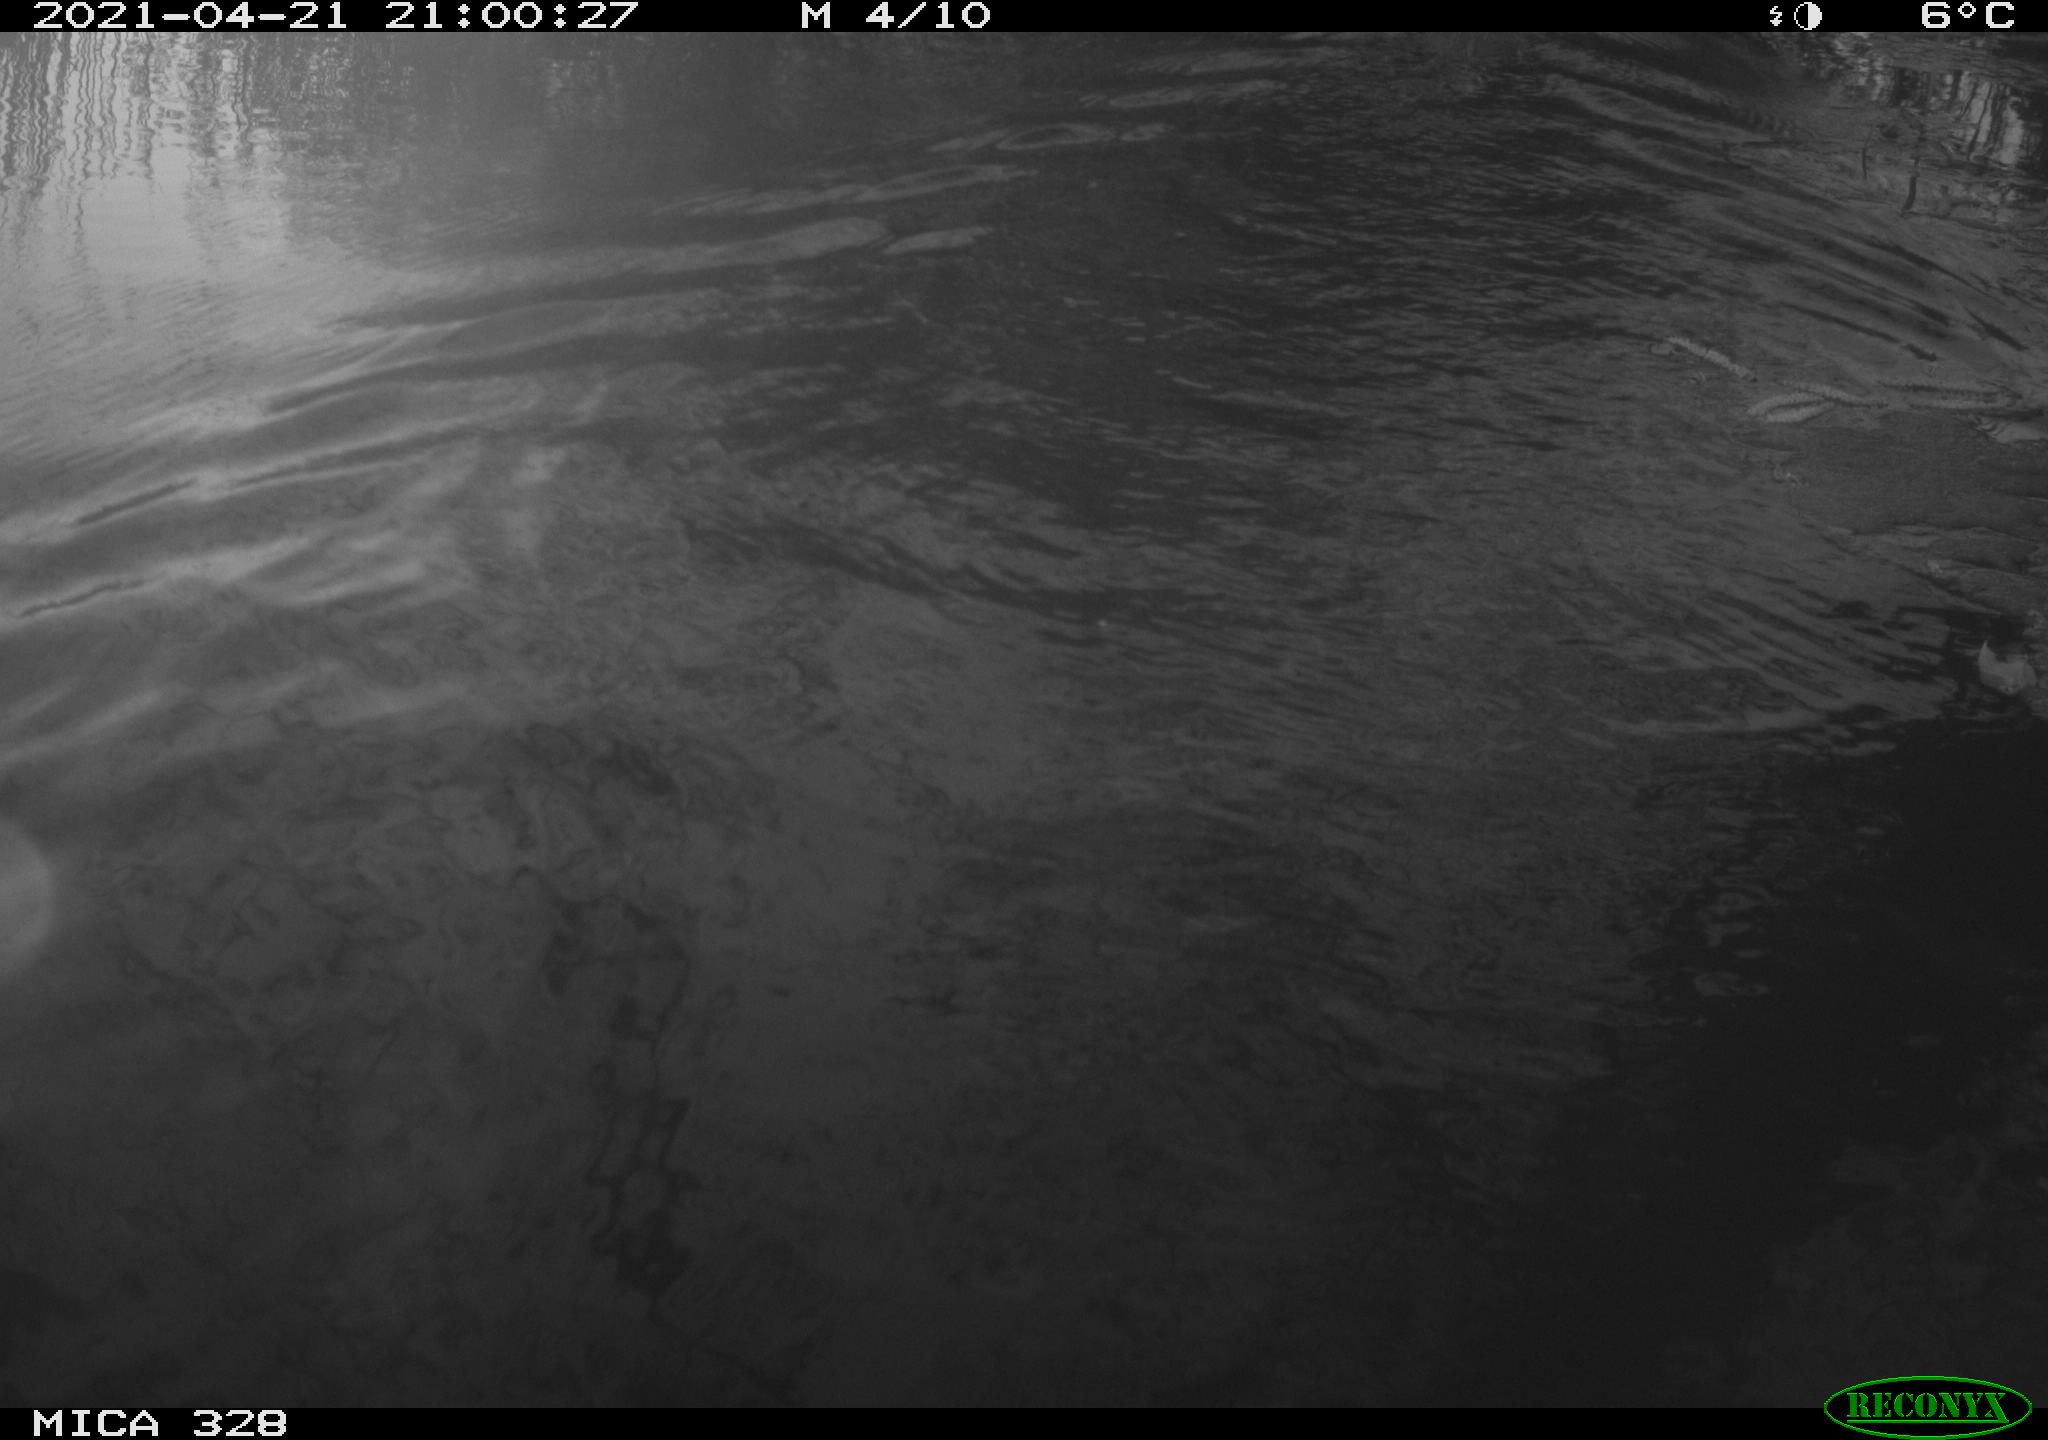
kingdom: Animalia
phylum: Chordata
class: Mammalia
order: Rodentia
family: Cricetidae
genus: Ondatra
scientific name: Ondatra zibethicus
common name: Muskrat
